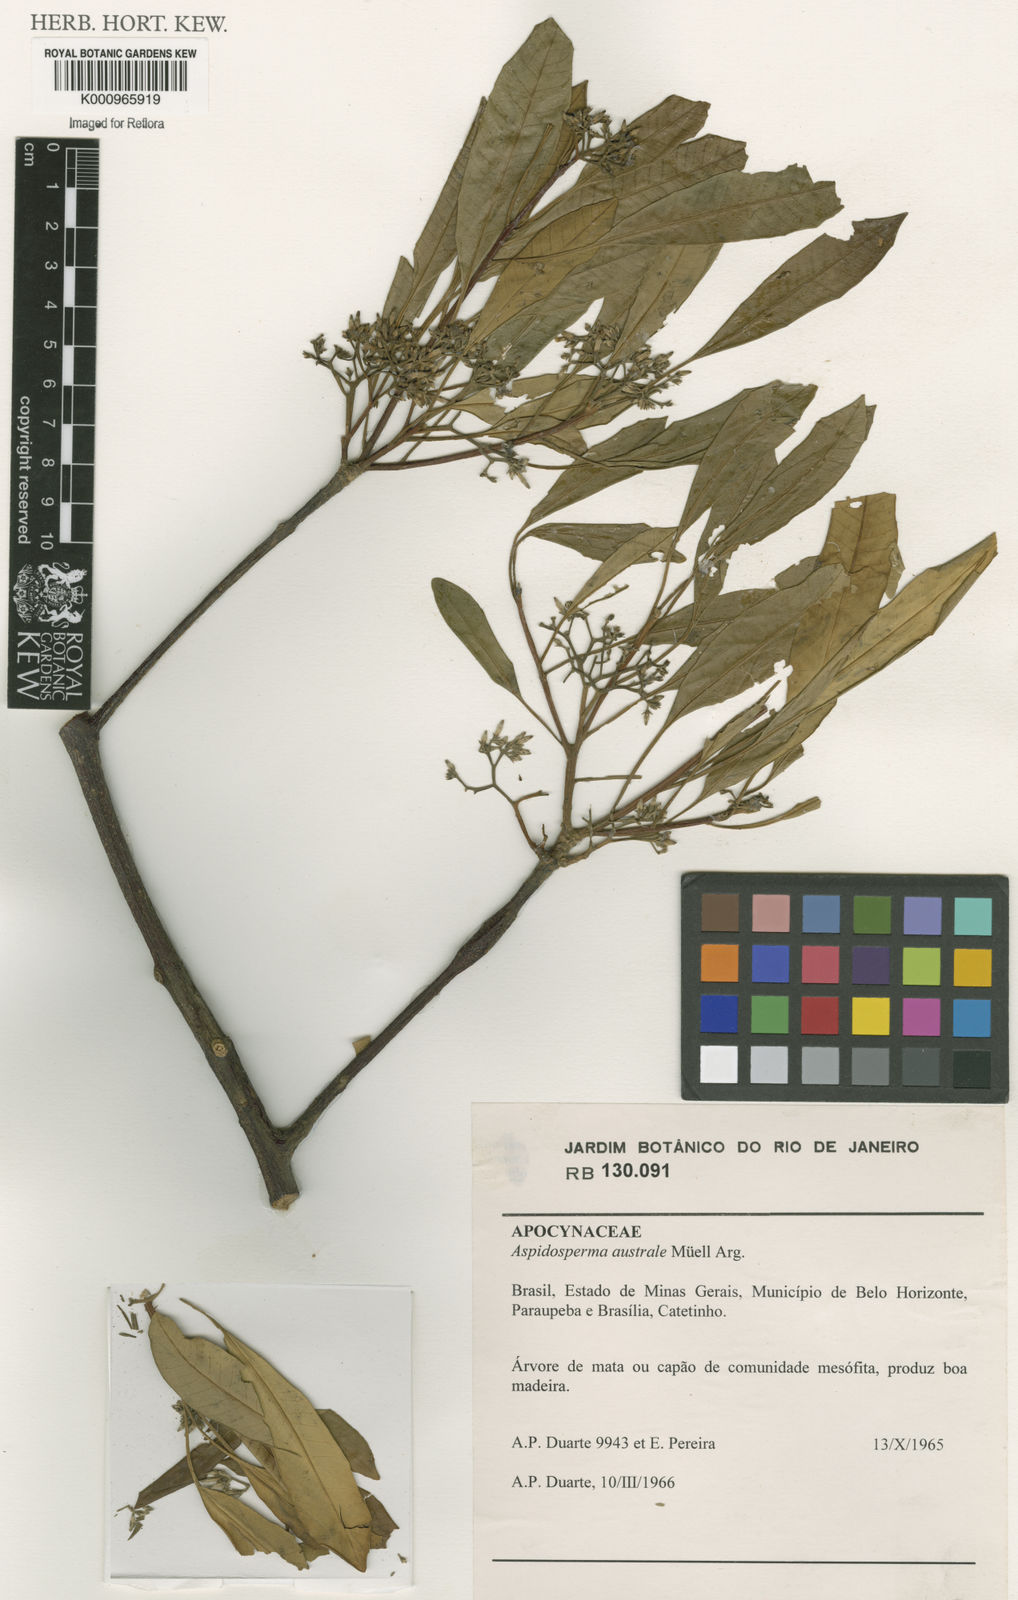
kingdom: Plantae
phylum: Tracheophyta
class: Magnoliopsida
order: Gentianales
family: Apocynaceae
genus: Aspidosperma
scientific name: Aspidosperma
